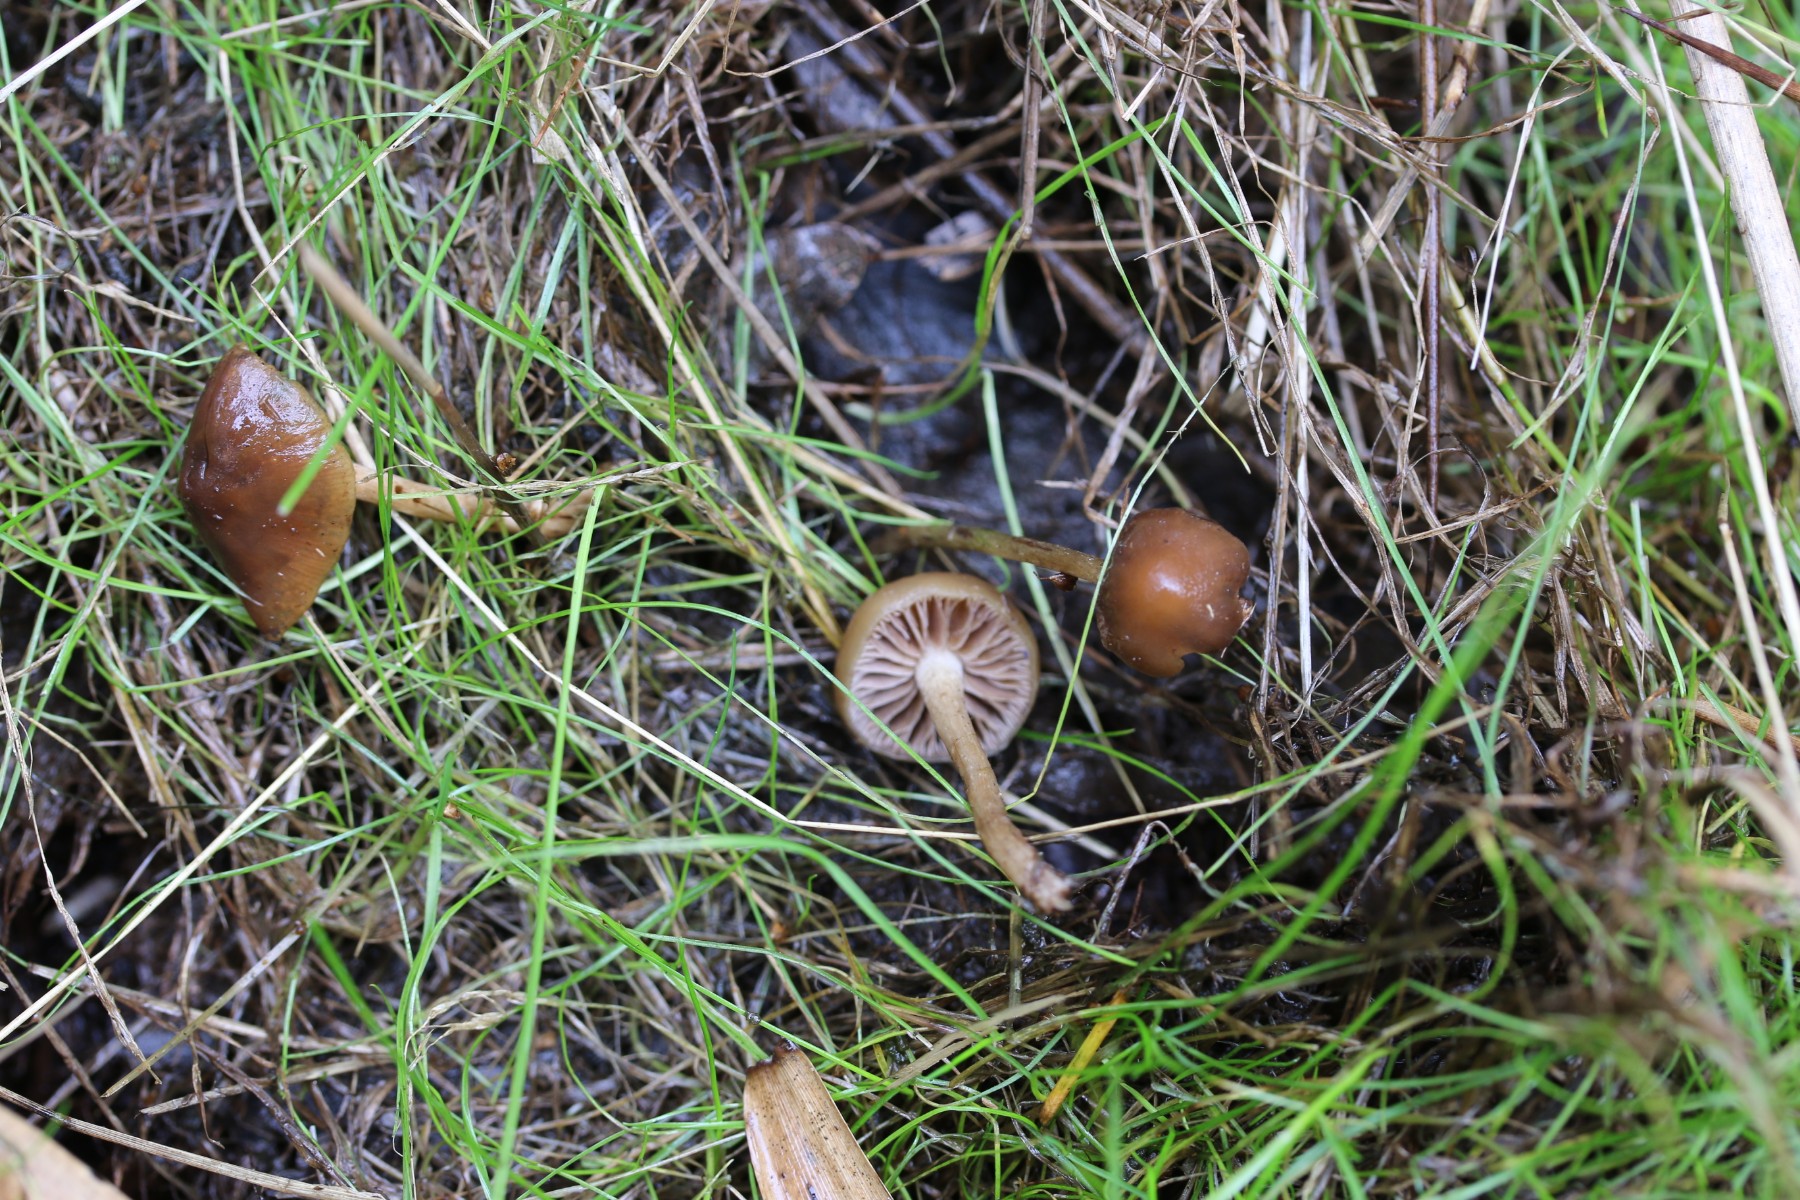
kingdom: Fungi
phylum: Basidiomycota
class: Agaricomycetes
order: Agaricales
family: Strophariaceae
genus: Hypholoma
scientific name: Hypholoma subericaeum
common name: eng-svovlhat
